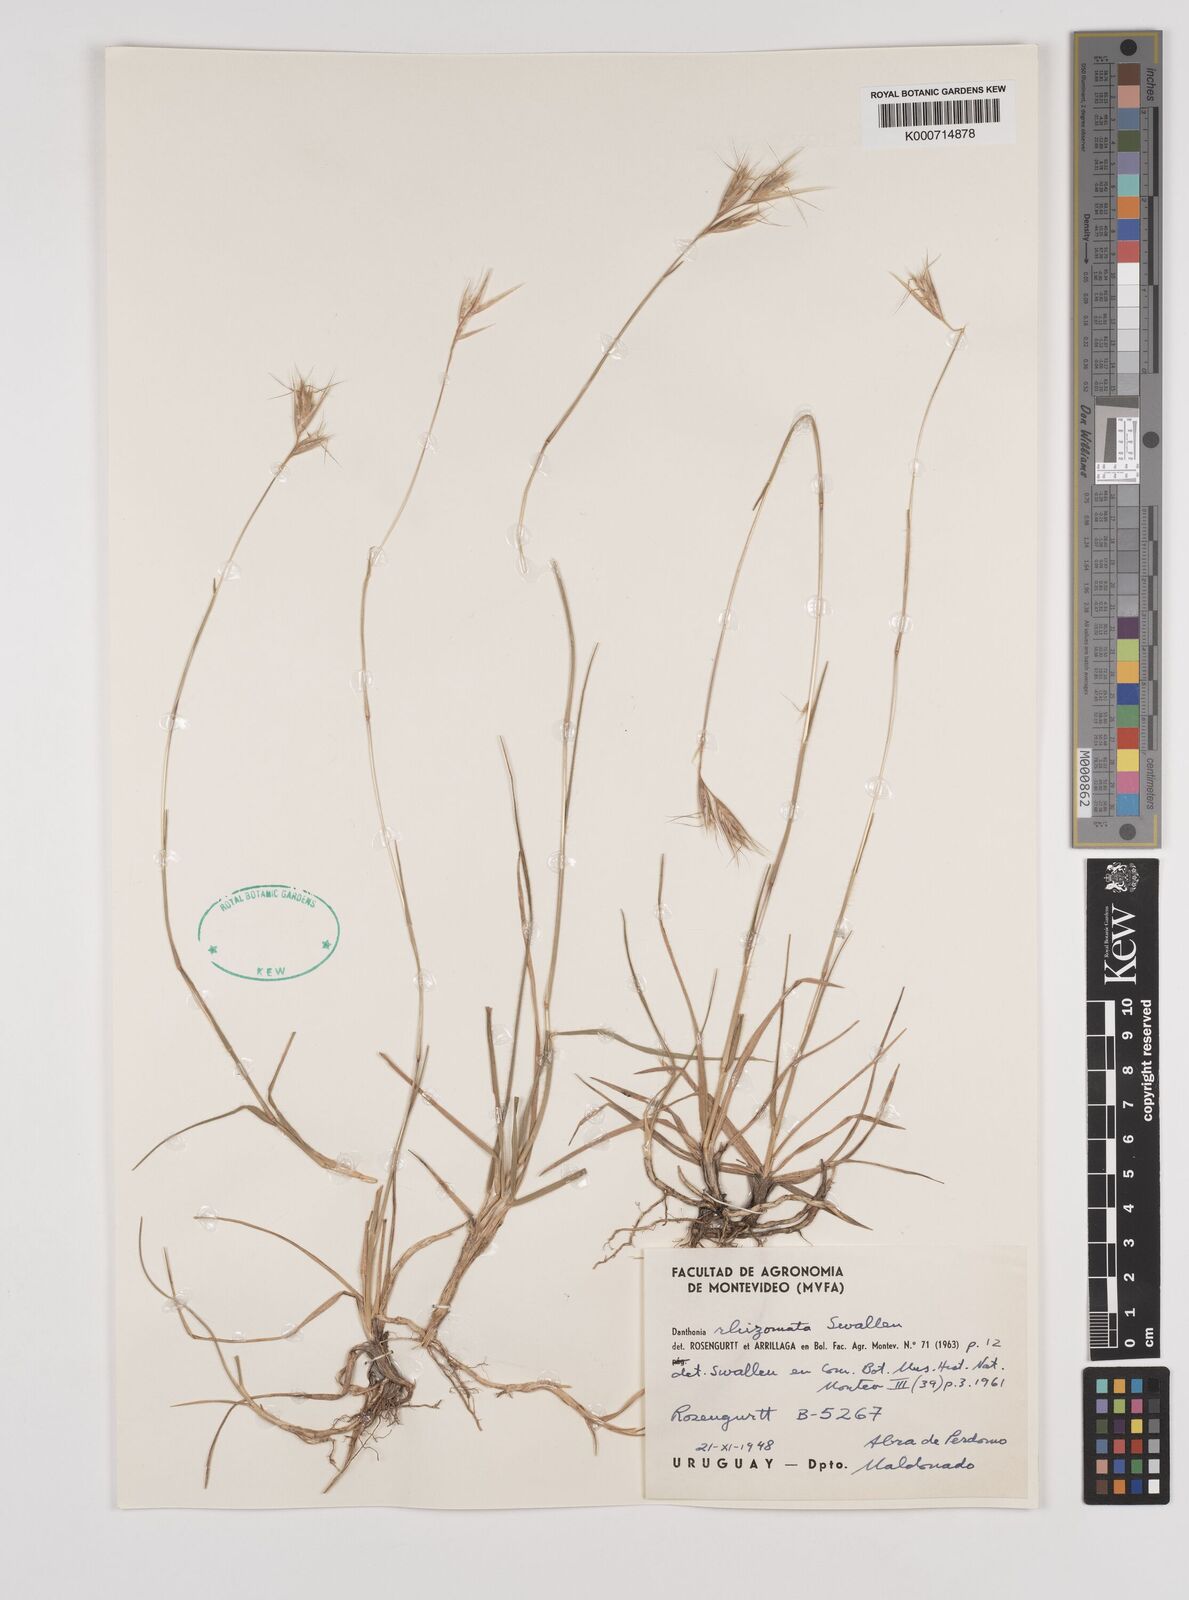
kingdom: Plantae
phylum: Tracheophyta
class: Liliopsida
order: Poales
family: Poaceae
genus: Rytidosperma
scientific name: Rytidosperma pictum
